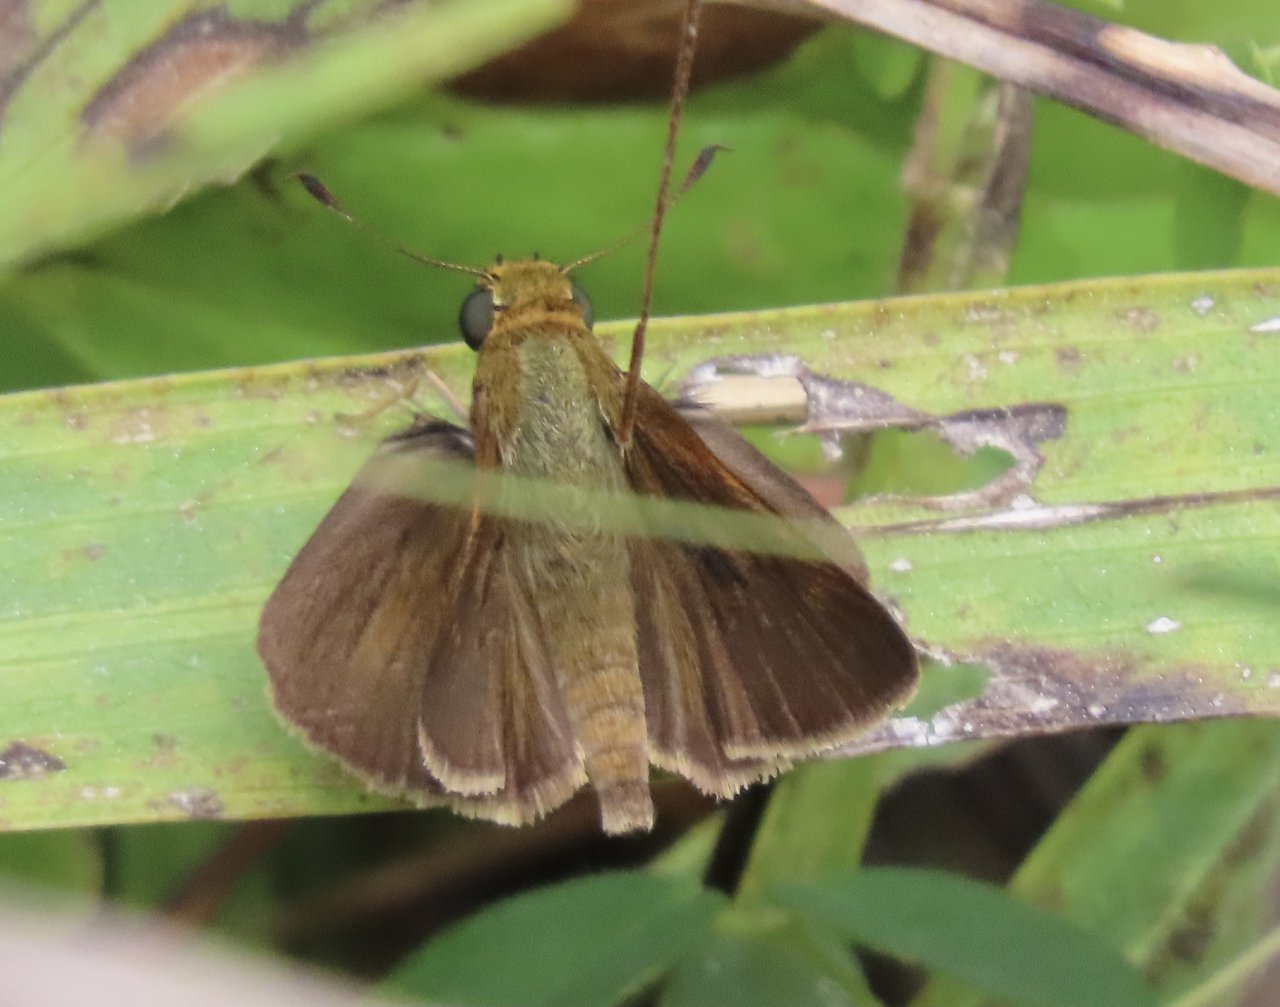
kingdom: Animalia
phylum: Arthropoda
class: Insecta
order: Lepidoptera
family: Hesperiidae
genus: Euphyes
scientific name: Euphyes vestris
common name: Dun Skipper
